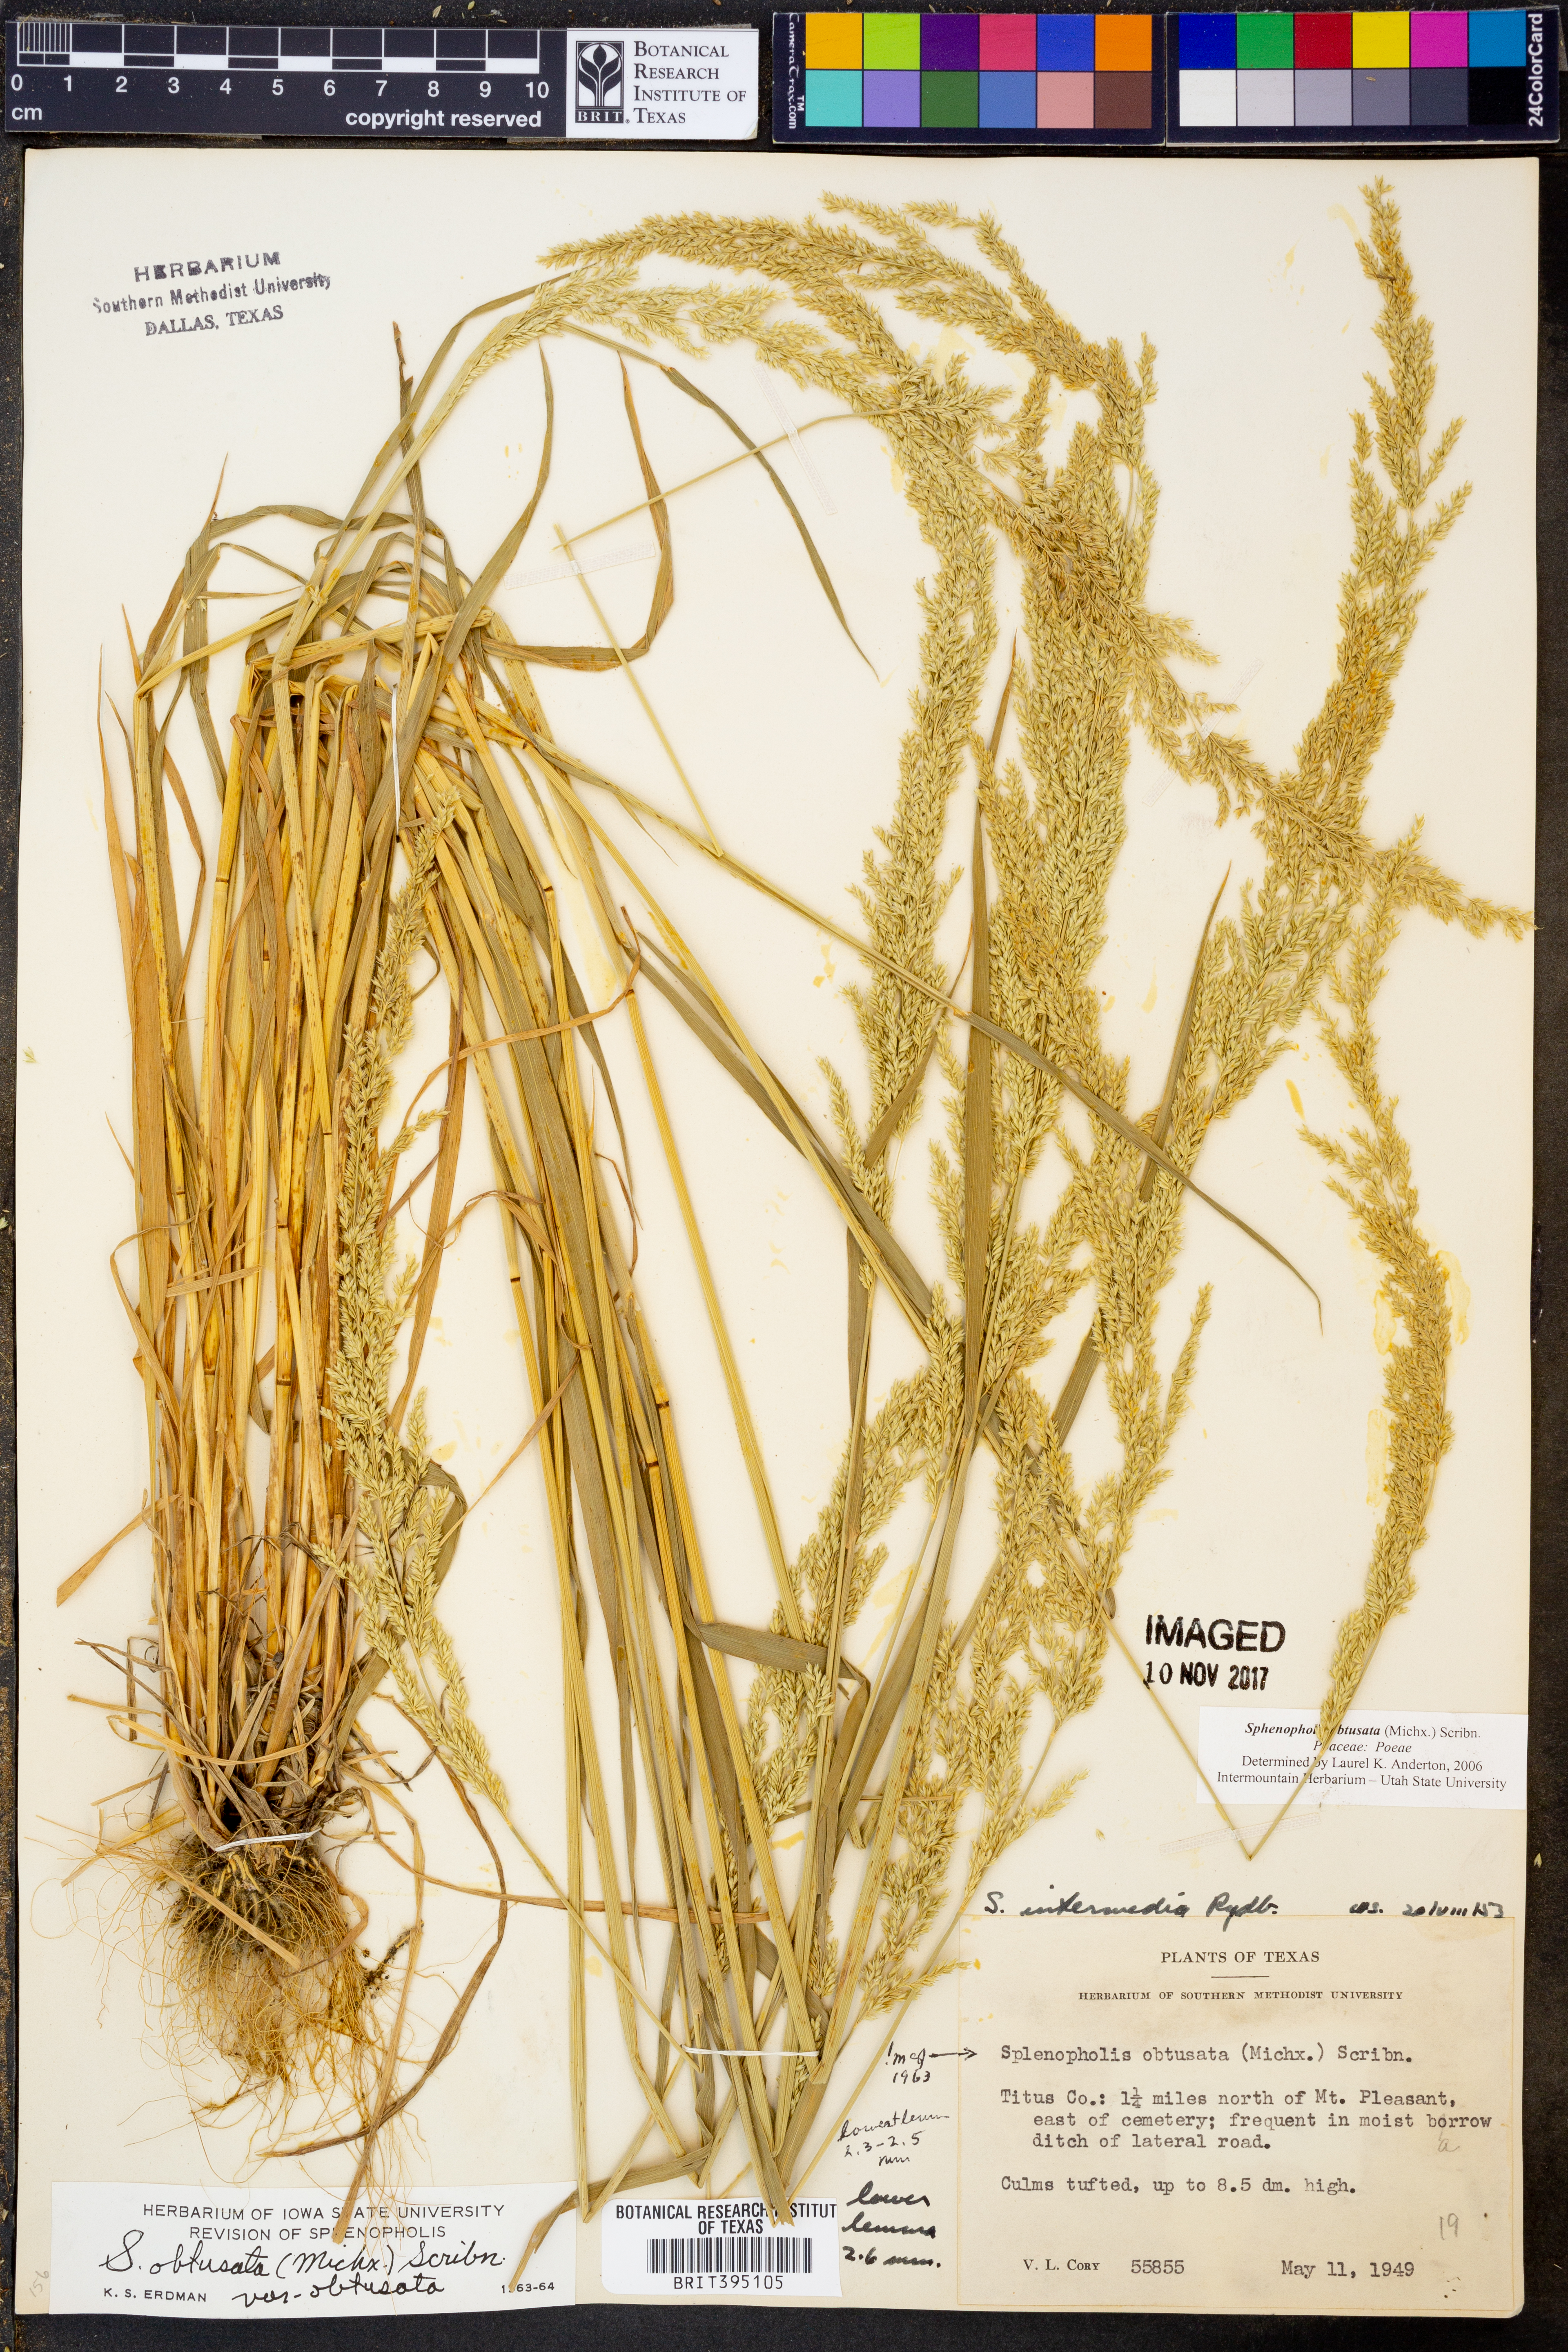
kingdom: Plantae
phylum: Tracheophyta
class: Liliopsida
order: Poales
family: Poaceae
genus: Sphenopholis
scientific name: Sphenopholis obtusata
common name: Prairie grass
